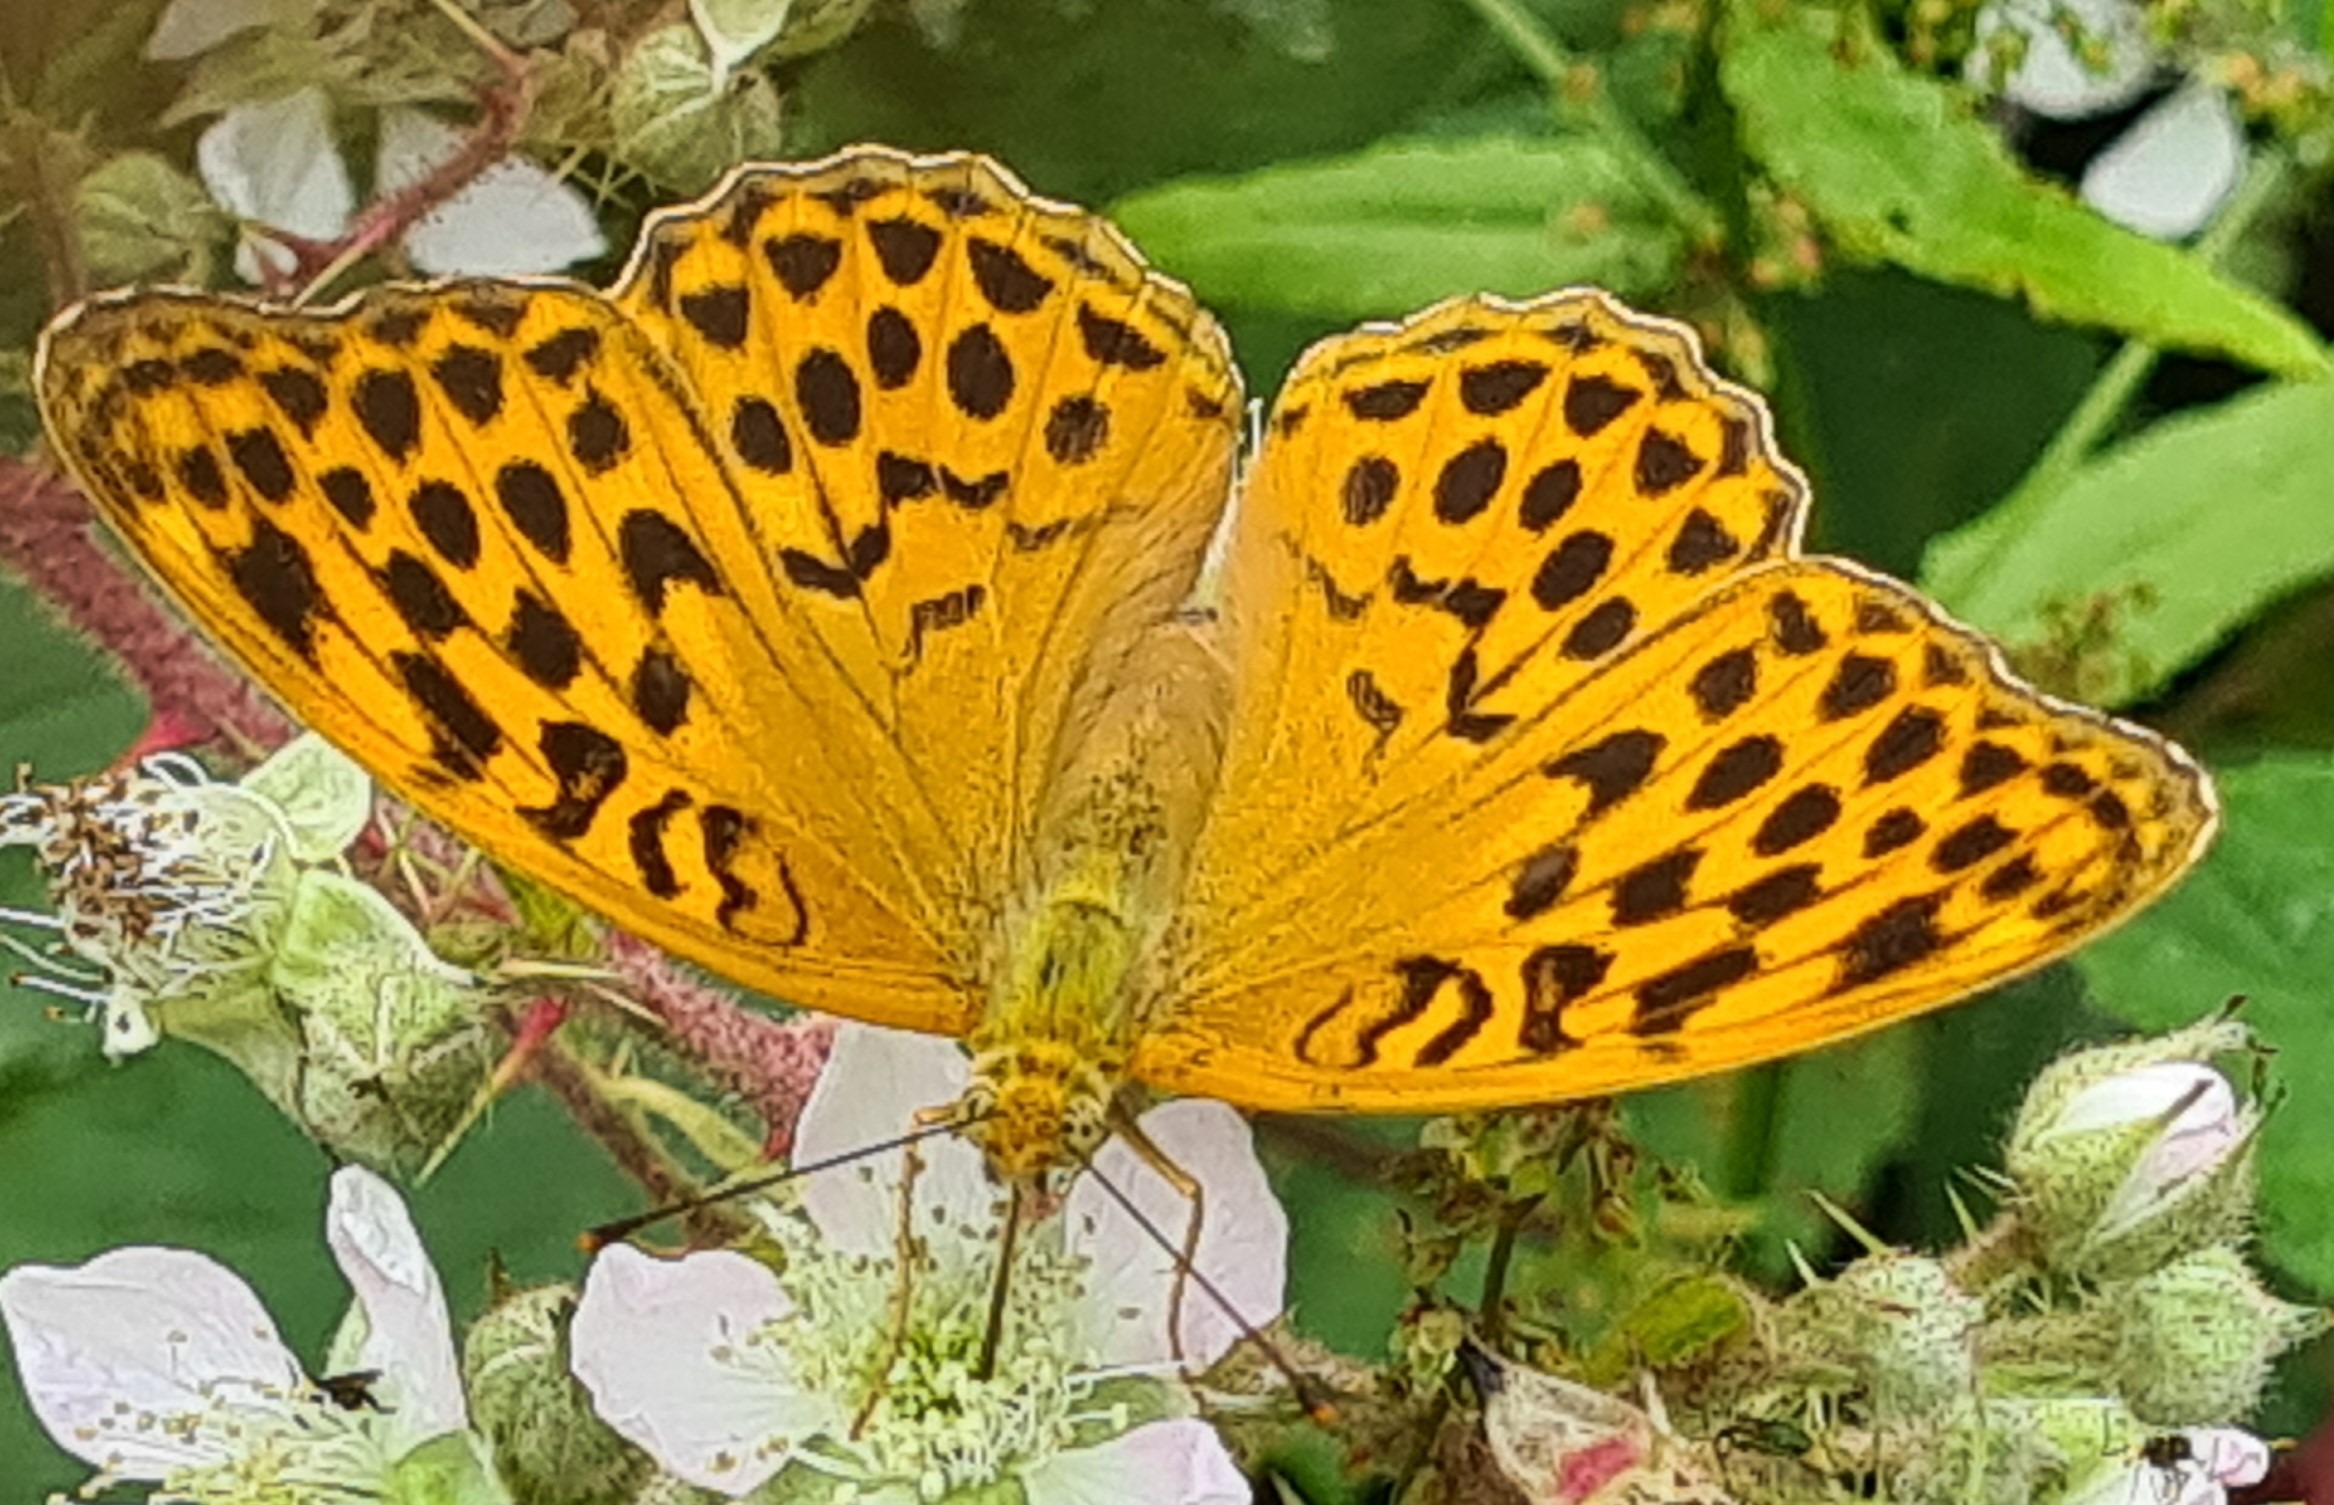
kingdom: Animalia
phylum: Arthropoda
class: Insecta
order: Lepidoptera
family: Nymphalidae
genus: Argynnis
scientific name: Argynnis paphia
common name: Kejserkåbe
